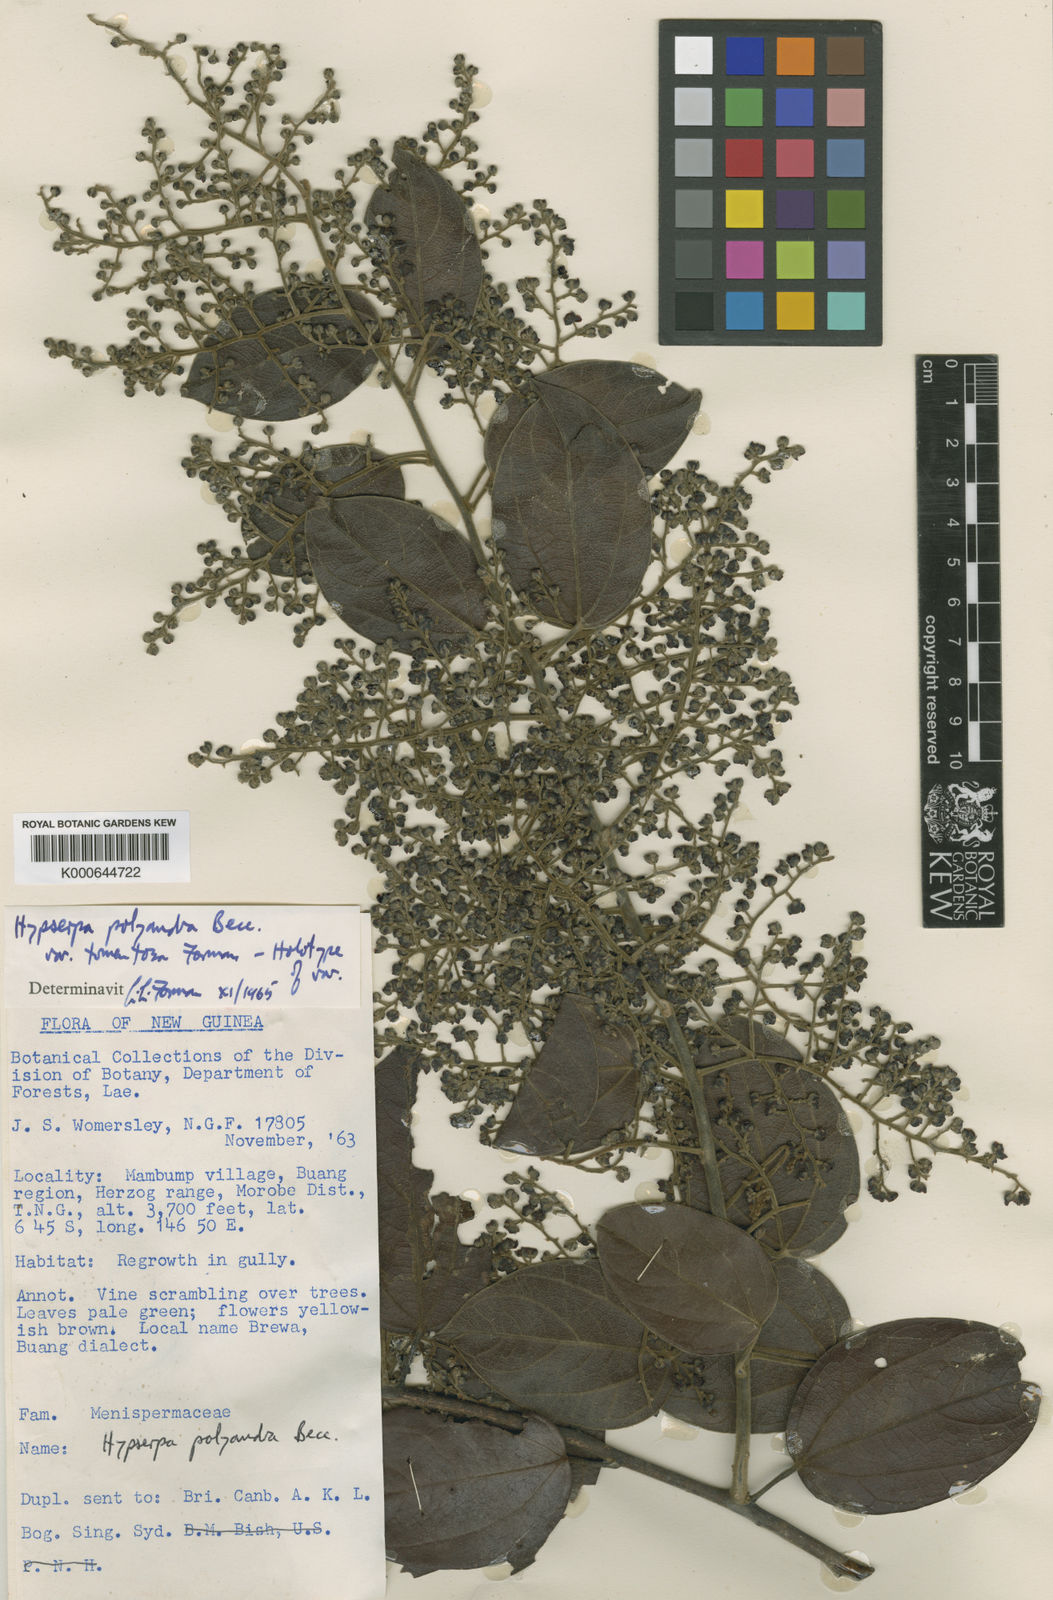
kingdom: Plantae
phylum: Tracheophyta
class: Magnoliopsida
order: Ranunculales
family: Menispermaceae
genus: Hypserpa
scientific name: Hypserpa polyandra
